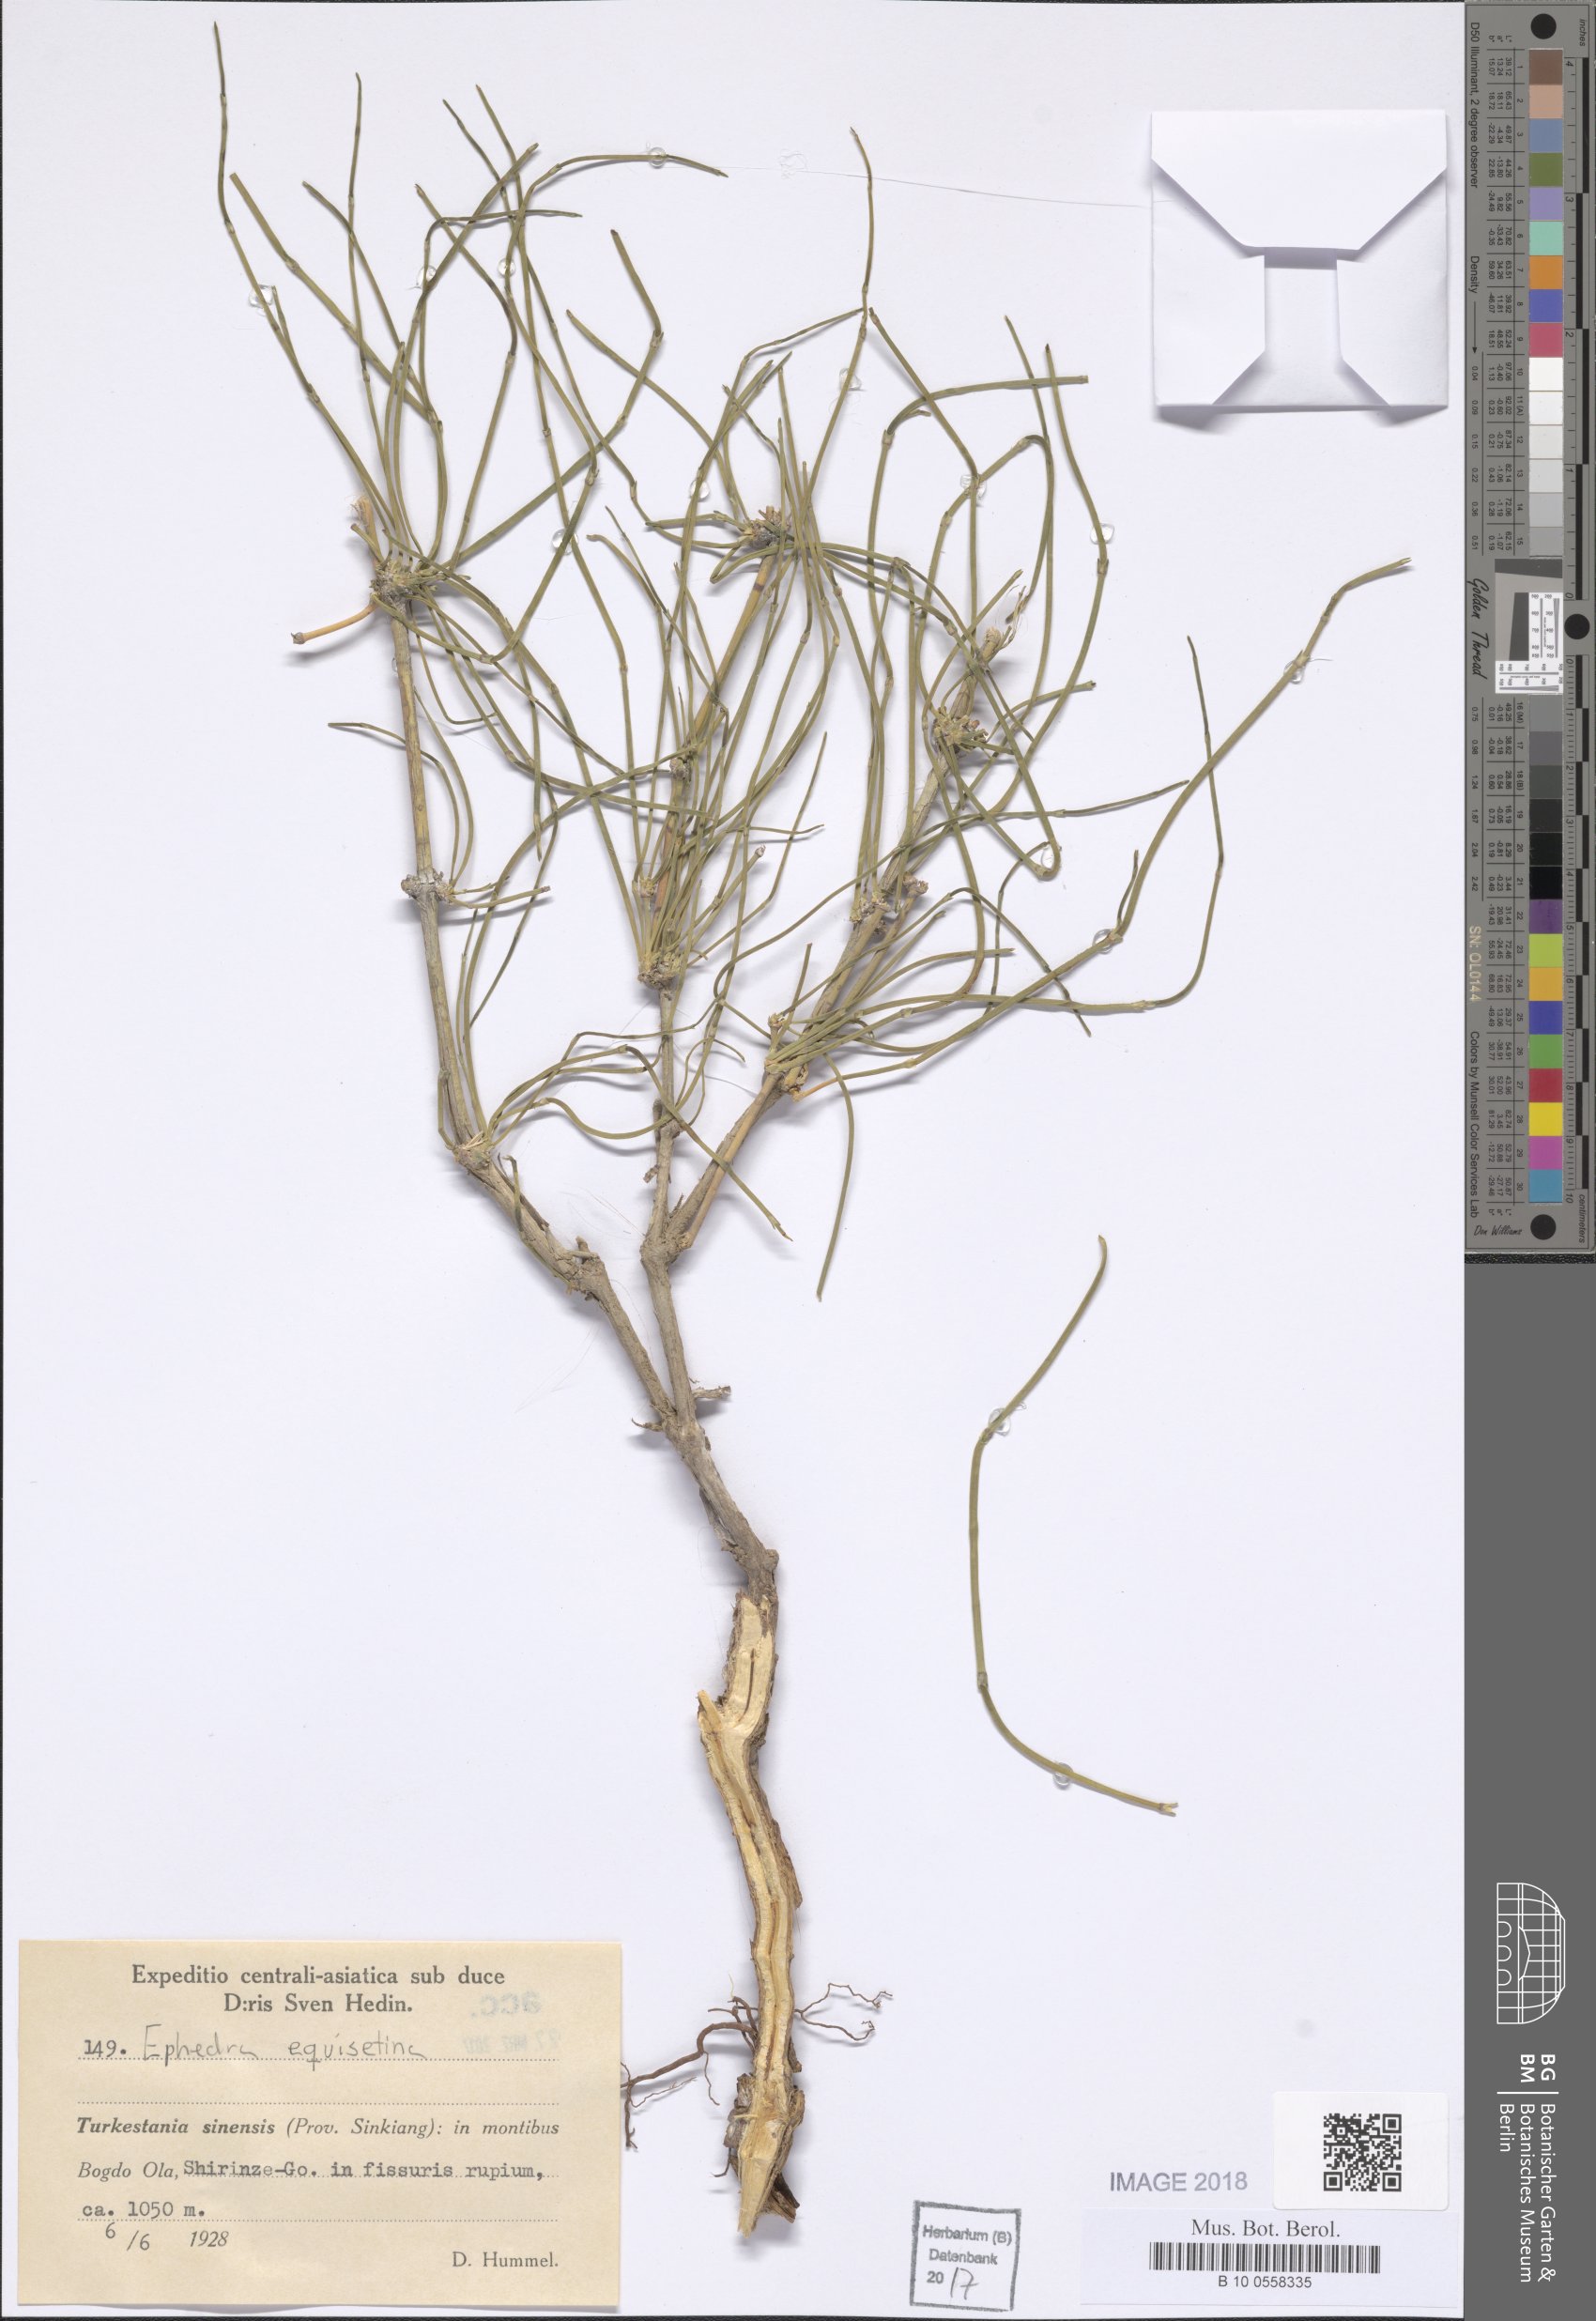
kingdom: Plantae
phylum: Tracheophyta
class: Gnetopsida
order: Ephedrales
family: Ephedraceae
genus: Ephedra
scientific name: Ephedra equisetina
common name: Mongolian ephedra
